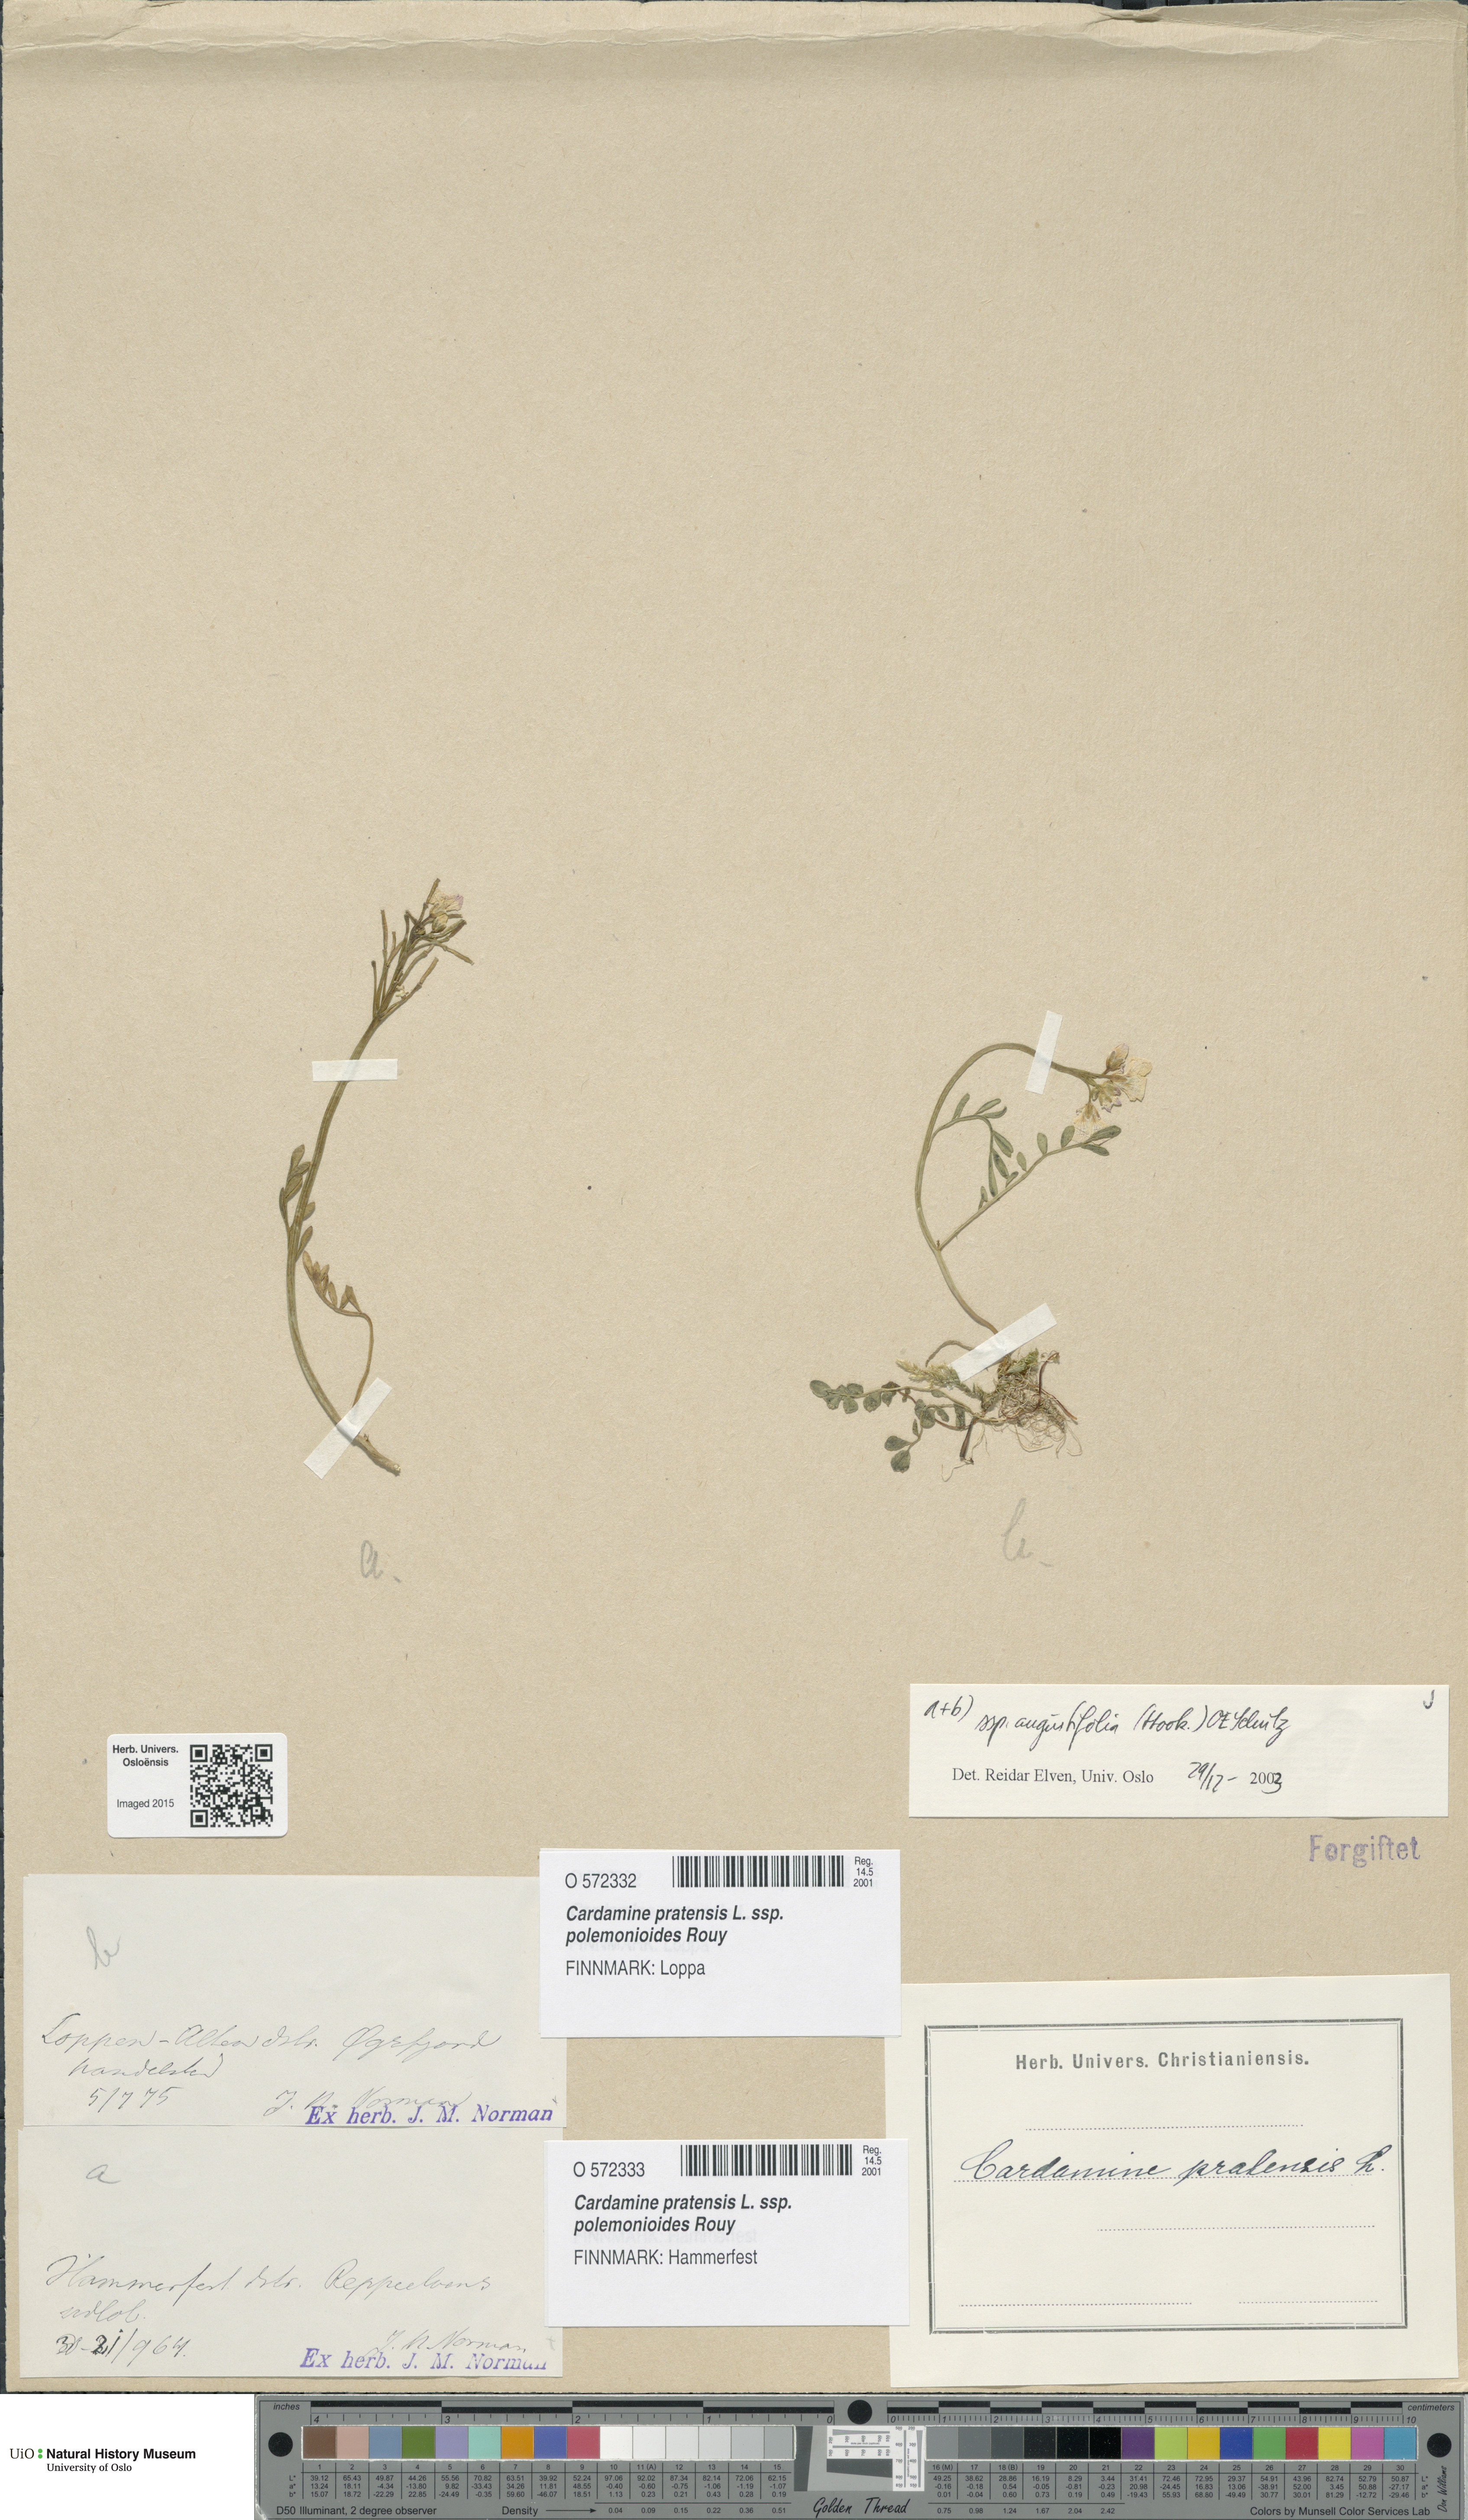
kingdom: Plantae
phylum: Tracheophyta
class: Magnoliopsida
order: Brassicales
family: Brassicaceae
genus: Cardamine
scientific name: Cardamine nymanii
